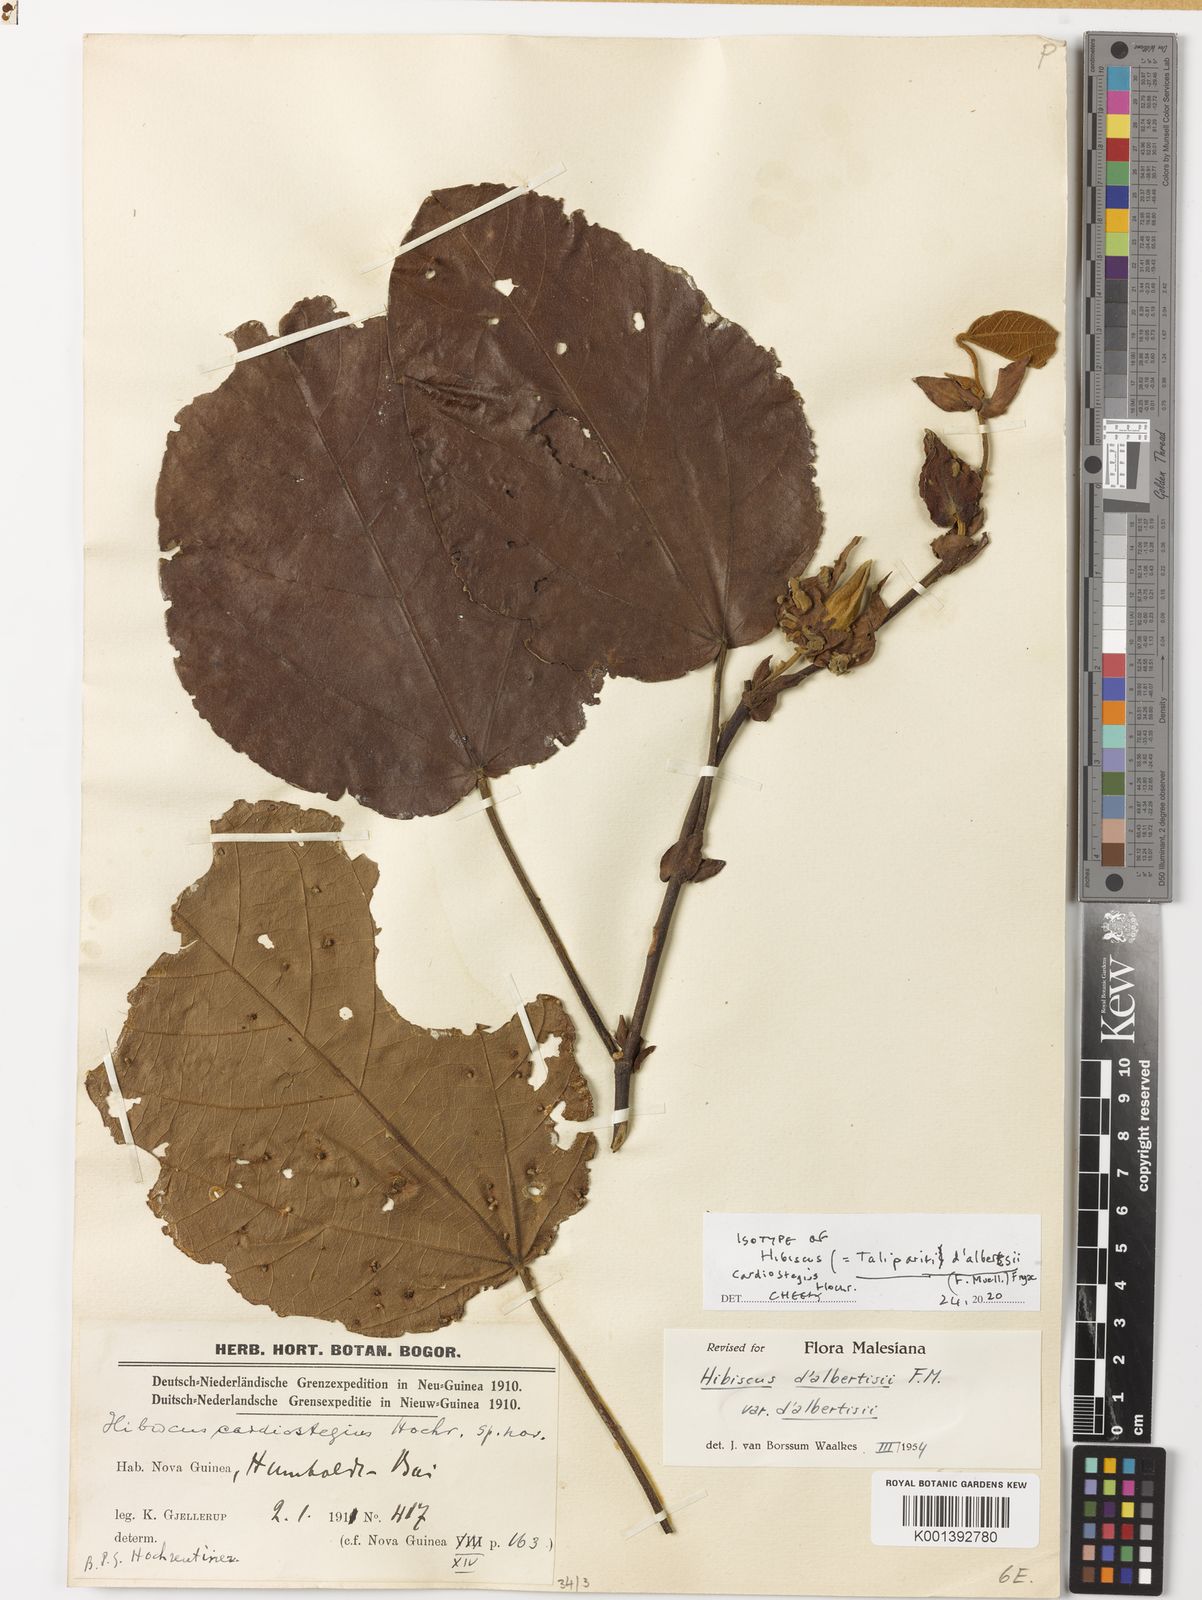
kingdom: Plantae
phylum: Tracheophyta
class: Magnoliopsida
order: Malvales
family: Malvaceae
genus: Talipariti
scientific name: Talipariti dalbertisii
